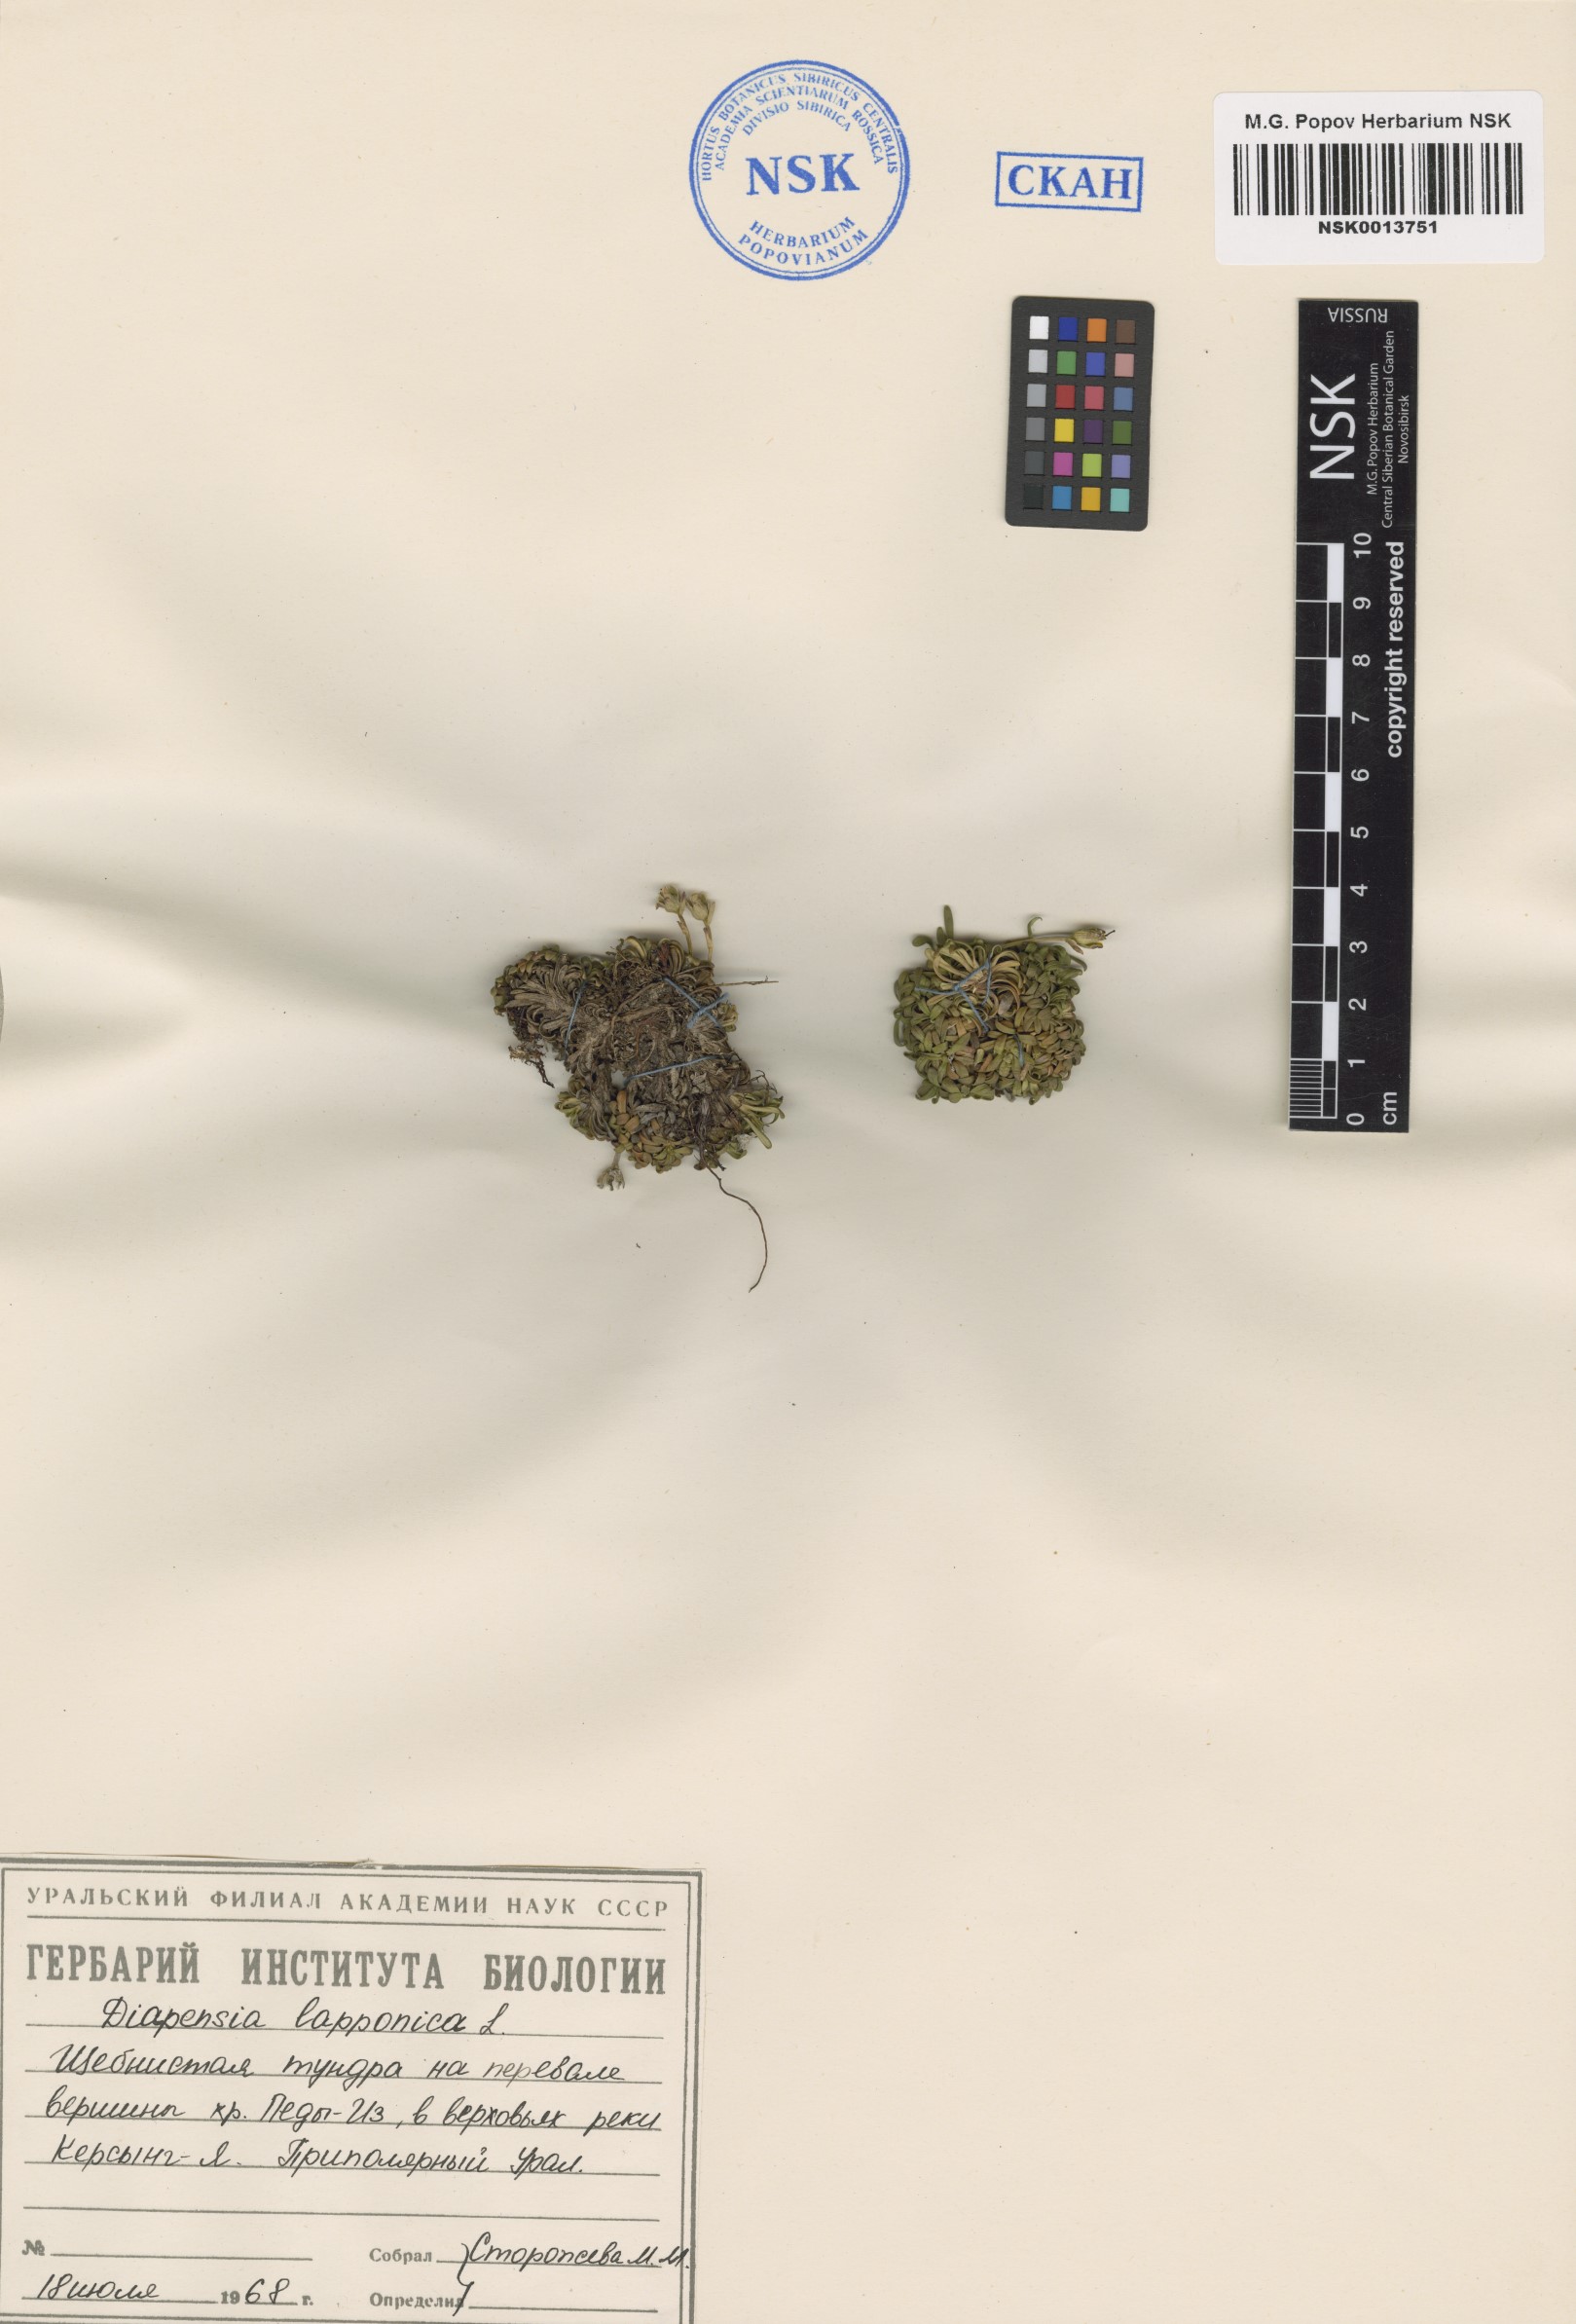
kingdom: Plantae
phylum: Tracheophyta
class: Magnoliopsida
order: Ericales
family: Diapensiaceae
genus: Diapensia
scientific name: Diapensia lapponica
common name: Diapensia
